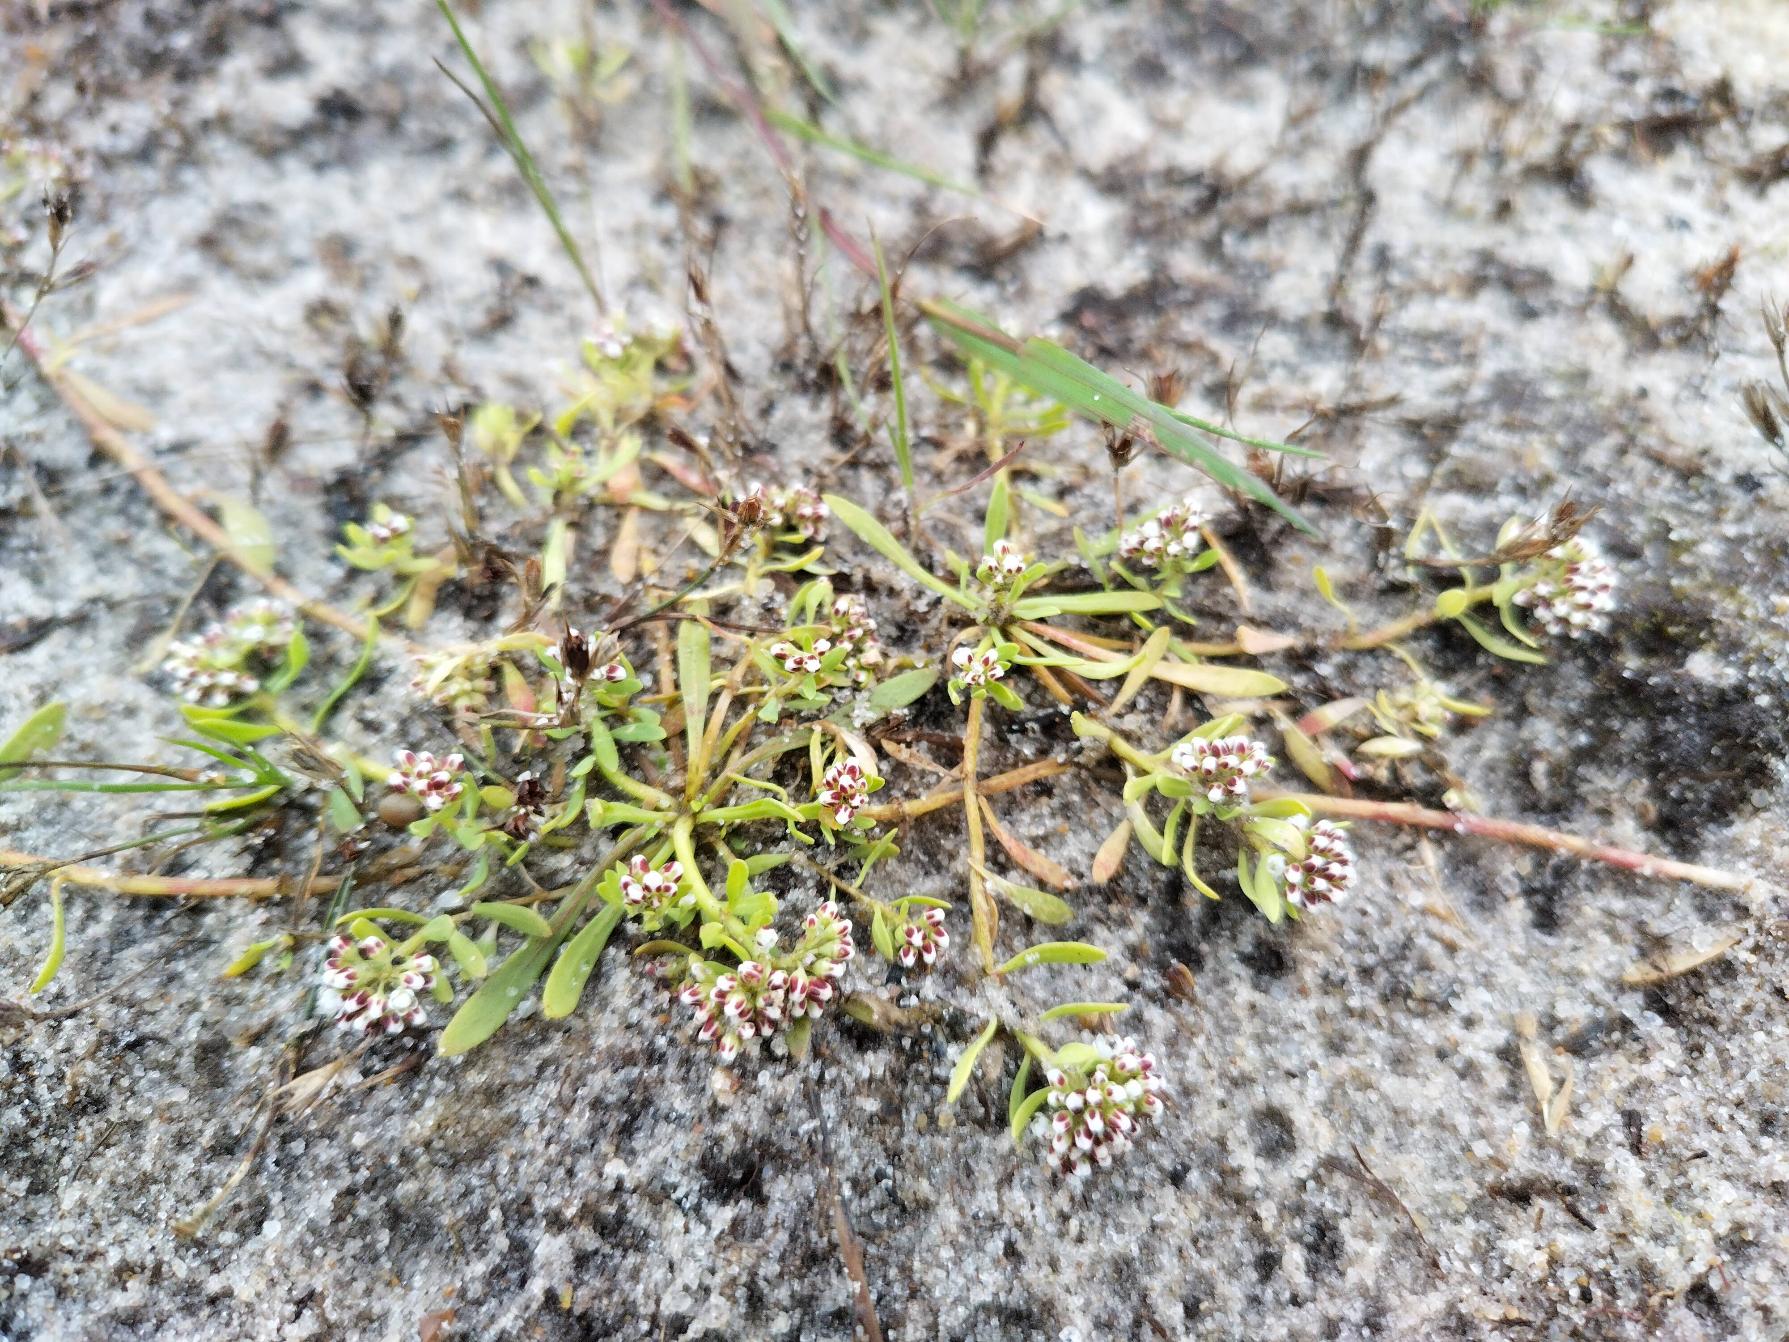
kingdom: Plantae
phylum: Tracheophyta
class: Magnoliopsida
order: Caryophyllales
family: Caryophyllaceae
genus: Corrigiola
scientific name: Corrigiola litoralis
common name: Skorem
